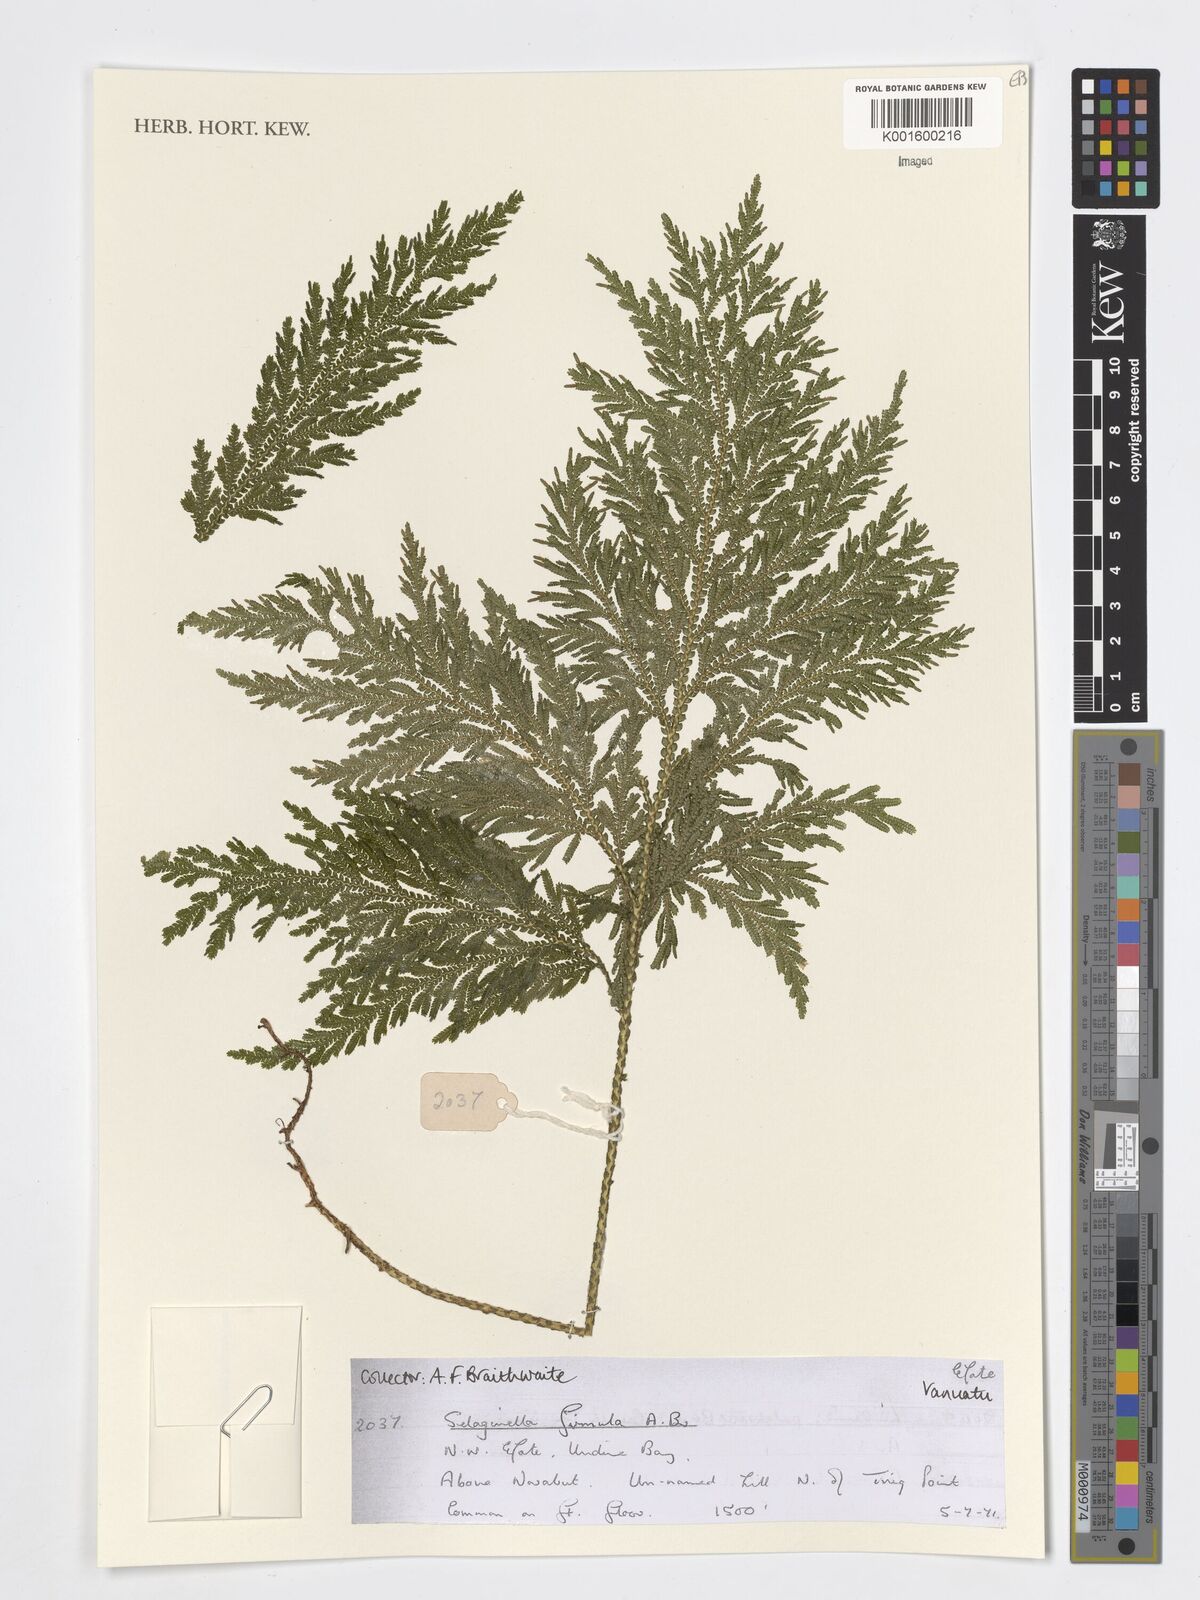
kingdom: Plantae
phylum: Tracheophyta
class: Lycopodiopsida
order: Selaginellales
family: Selaginellaceae
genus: Selaginella
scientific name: Selaginella firmula
